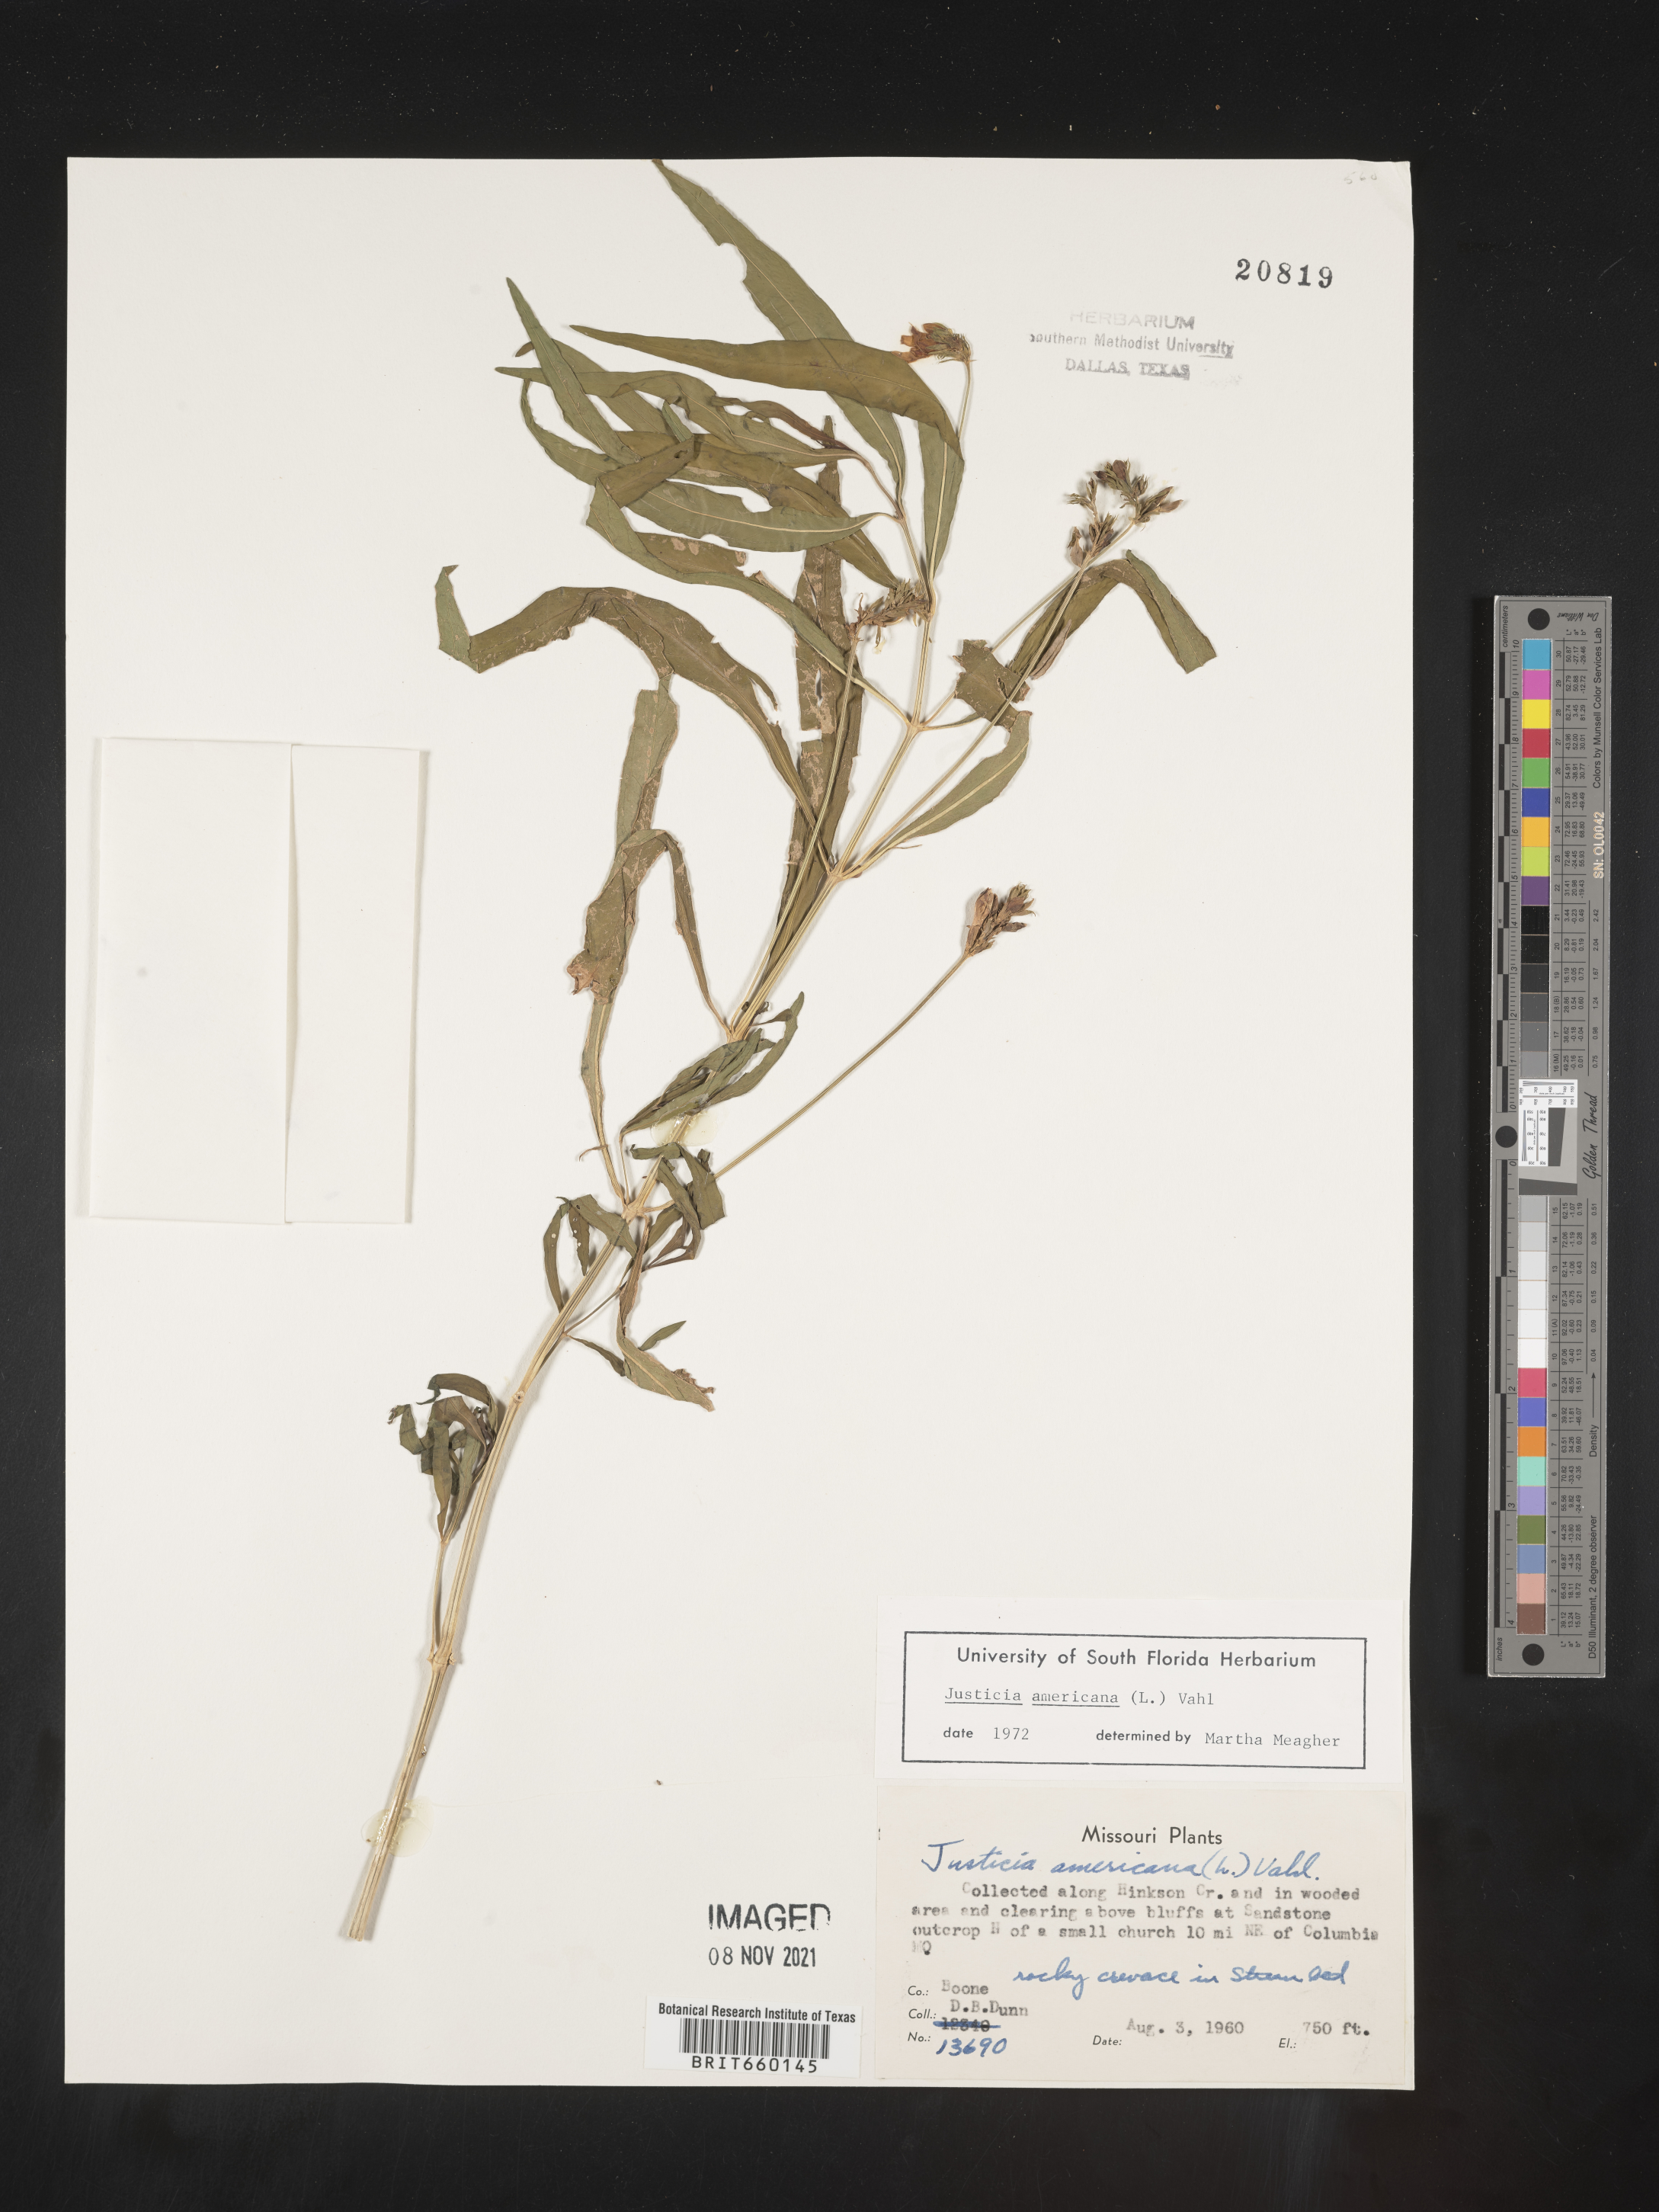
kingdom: Plantae
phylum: Tracheophyta
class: Magnoliopsida
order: Lamiales
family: Acanthaceae
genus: Dianthera
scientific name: Dianthera americana
